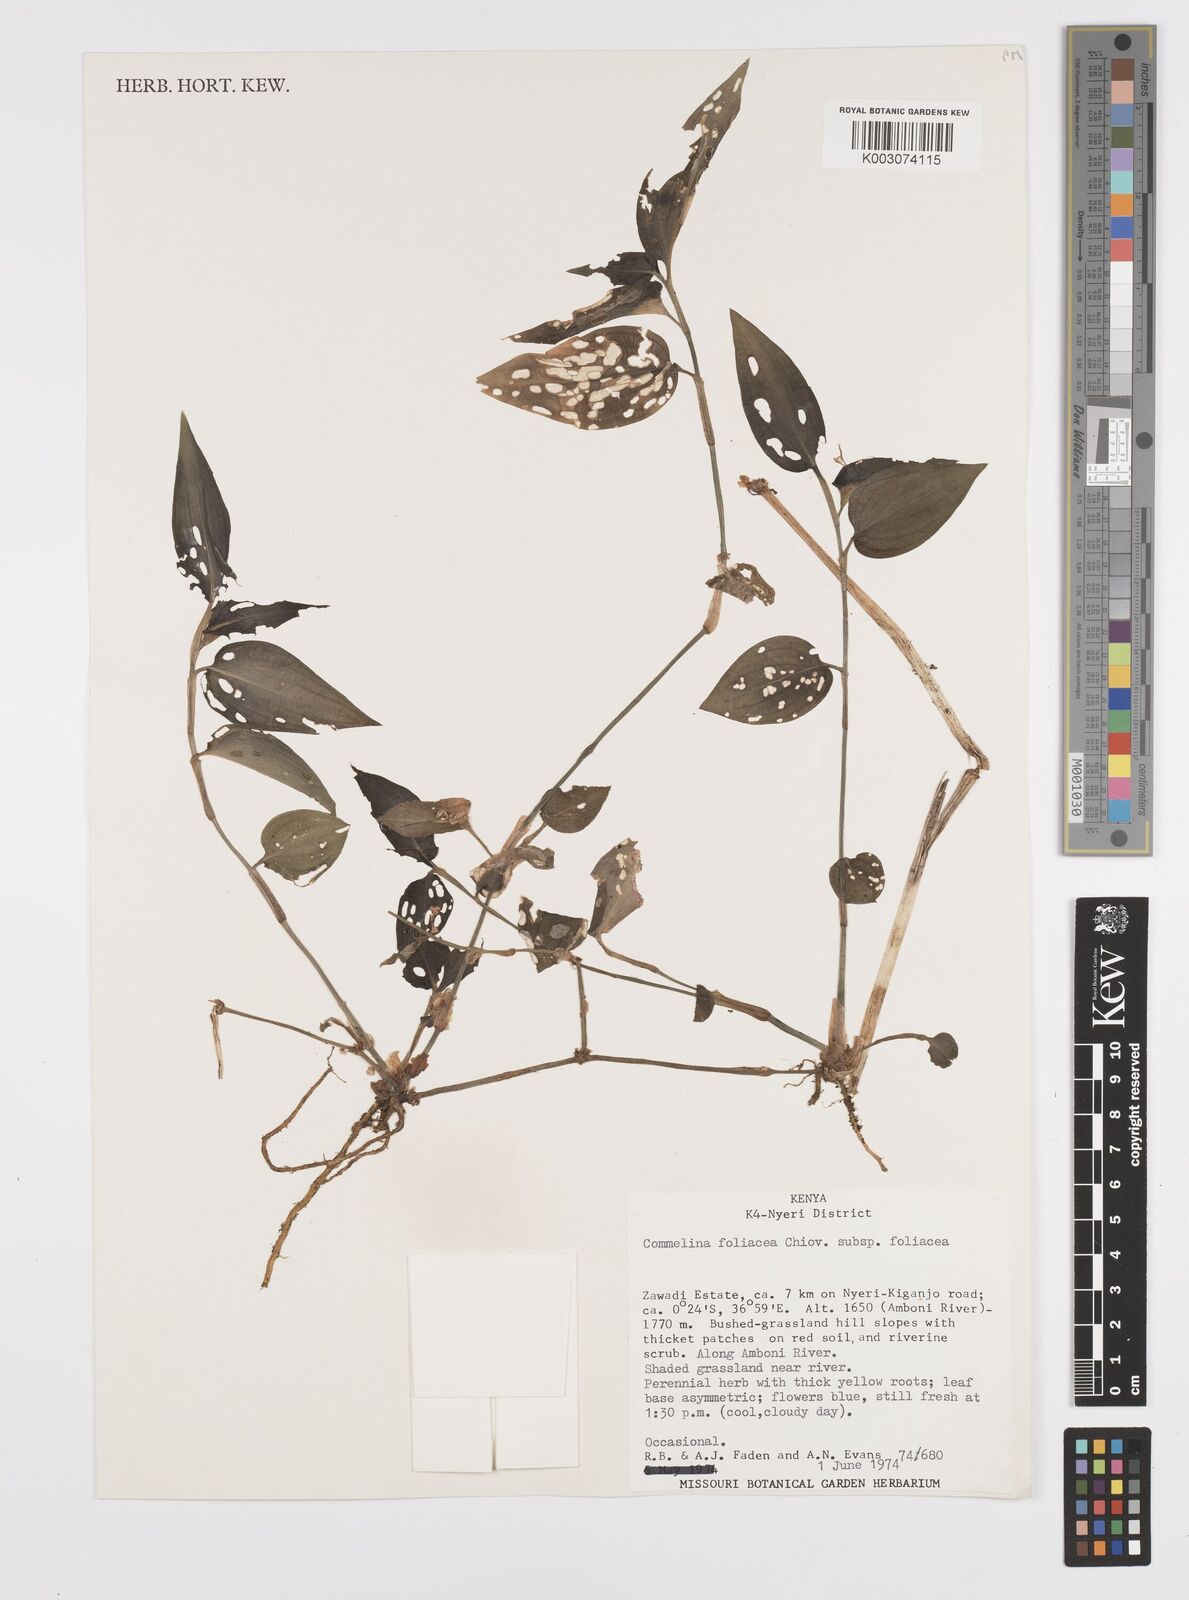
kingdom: Plantae
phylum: Tracheophyta
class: Liliopsida
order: Commelinales
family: Commelinaceae
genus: Commelina
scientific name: Commelina foliacea
